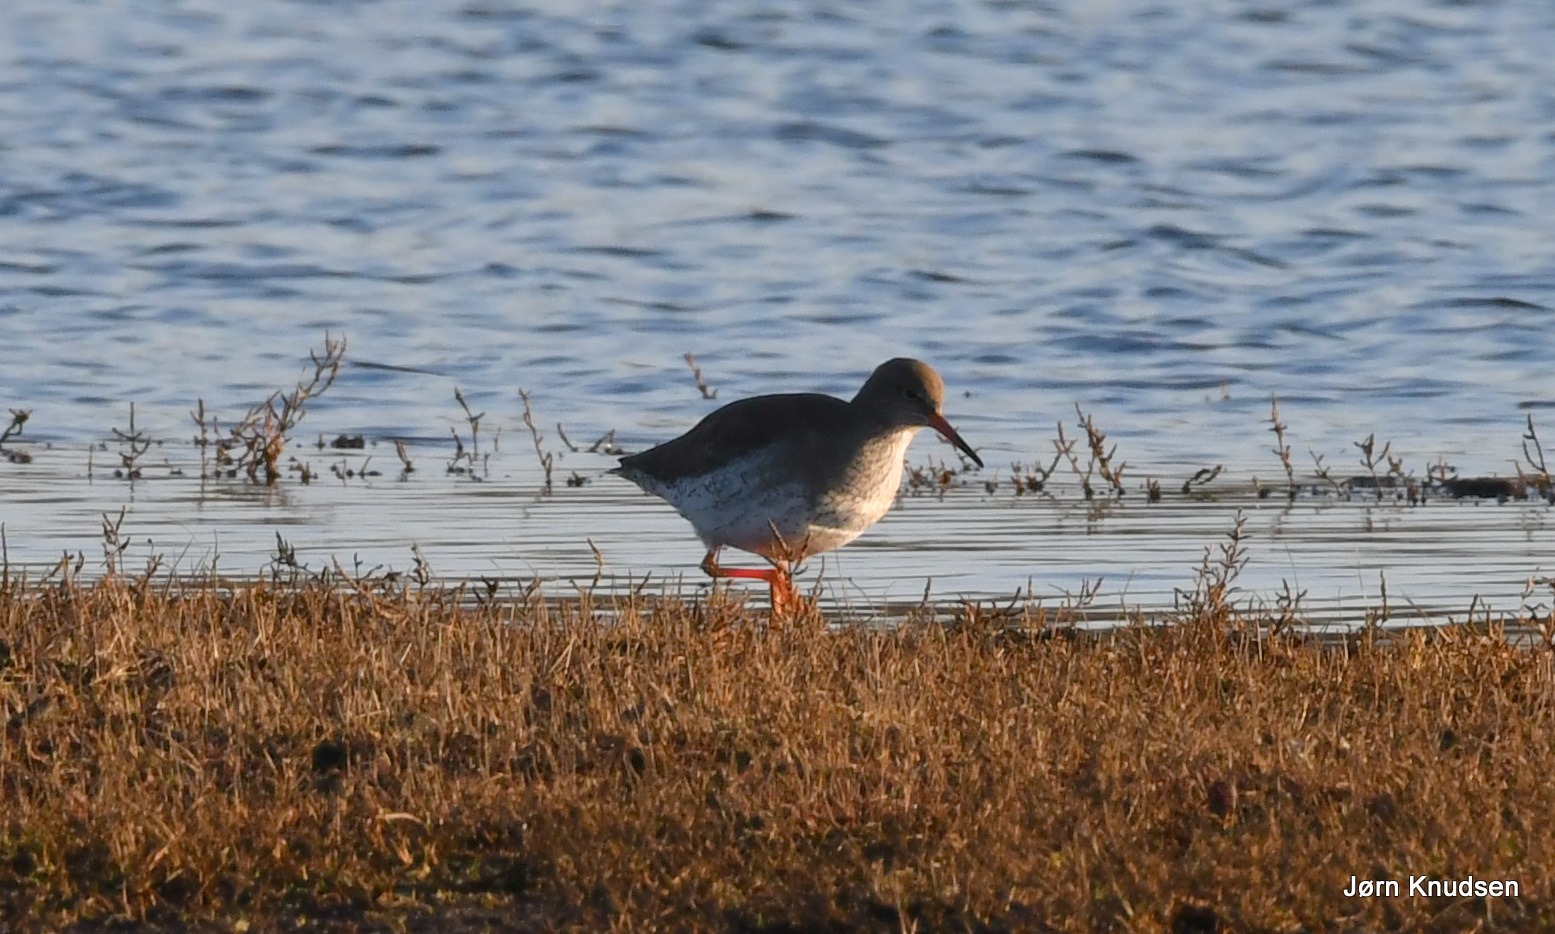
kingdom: Animalia
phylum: Chordata
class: Aves
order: Charadriiformes
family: Scolopacidae
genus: Tringa
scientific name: Tringa totanus
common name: Rødben
